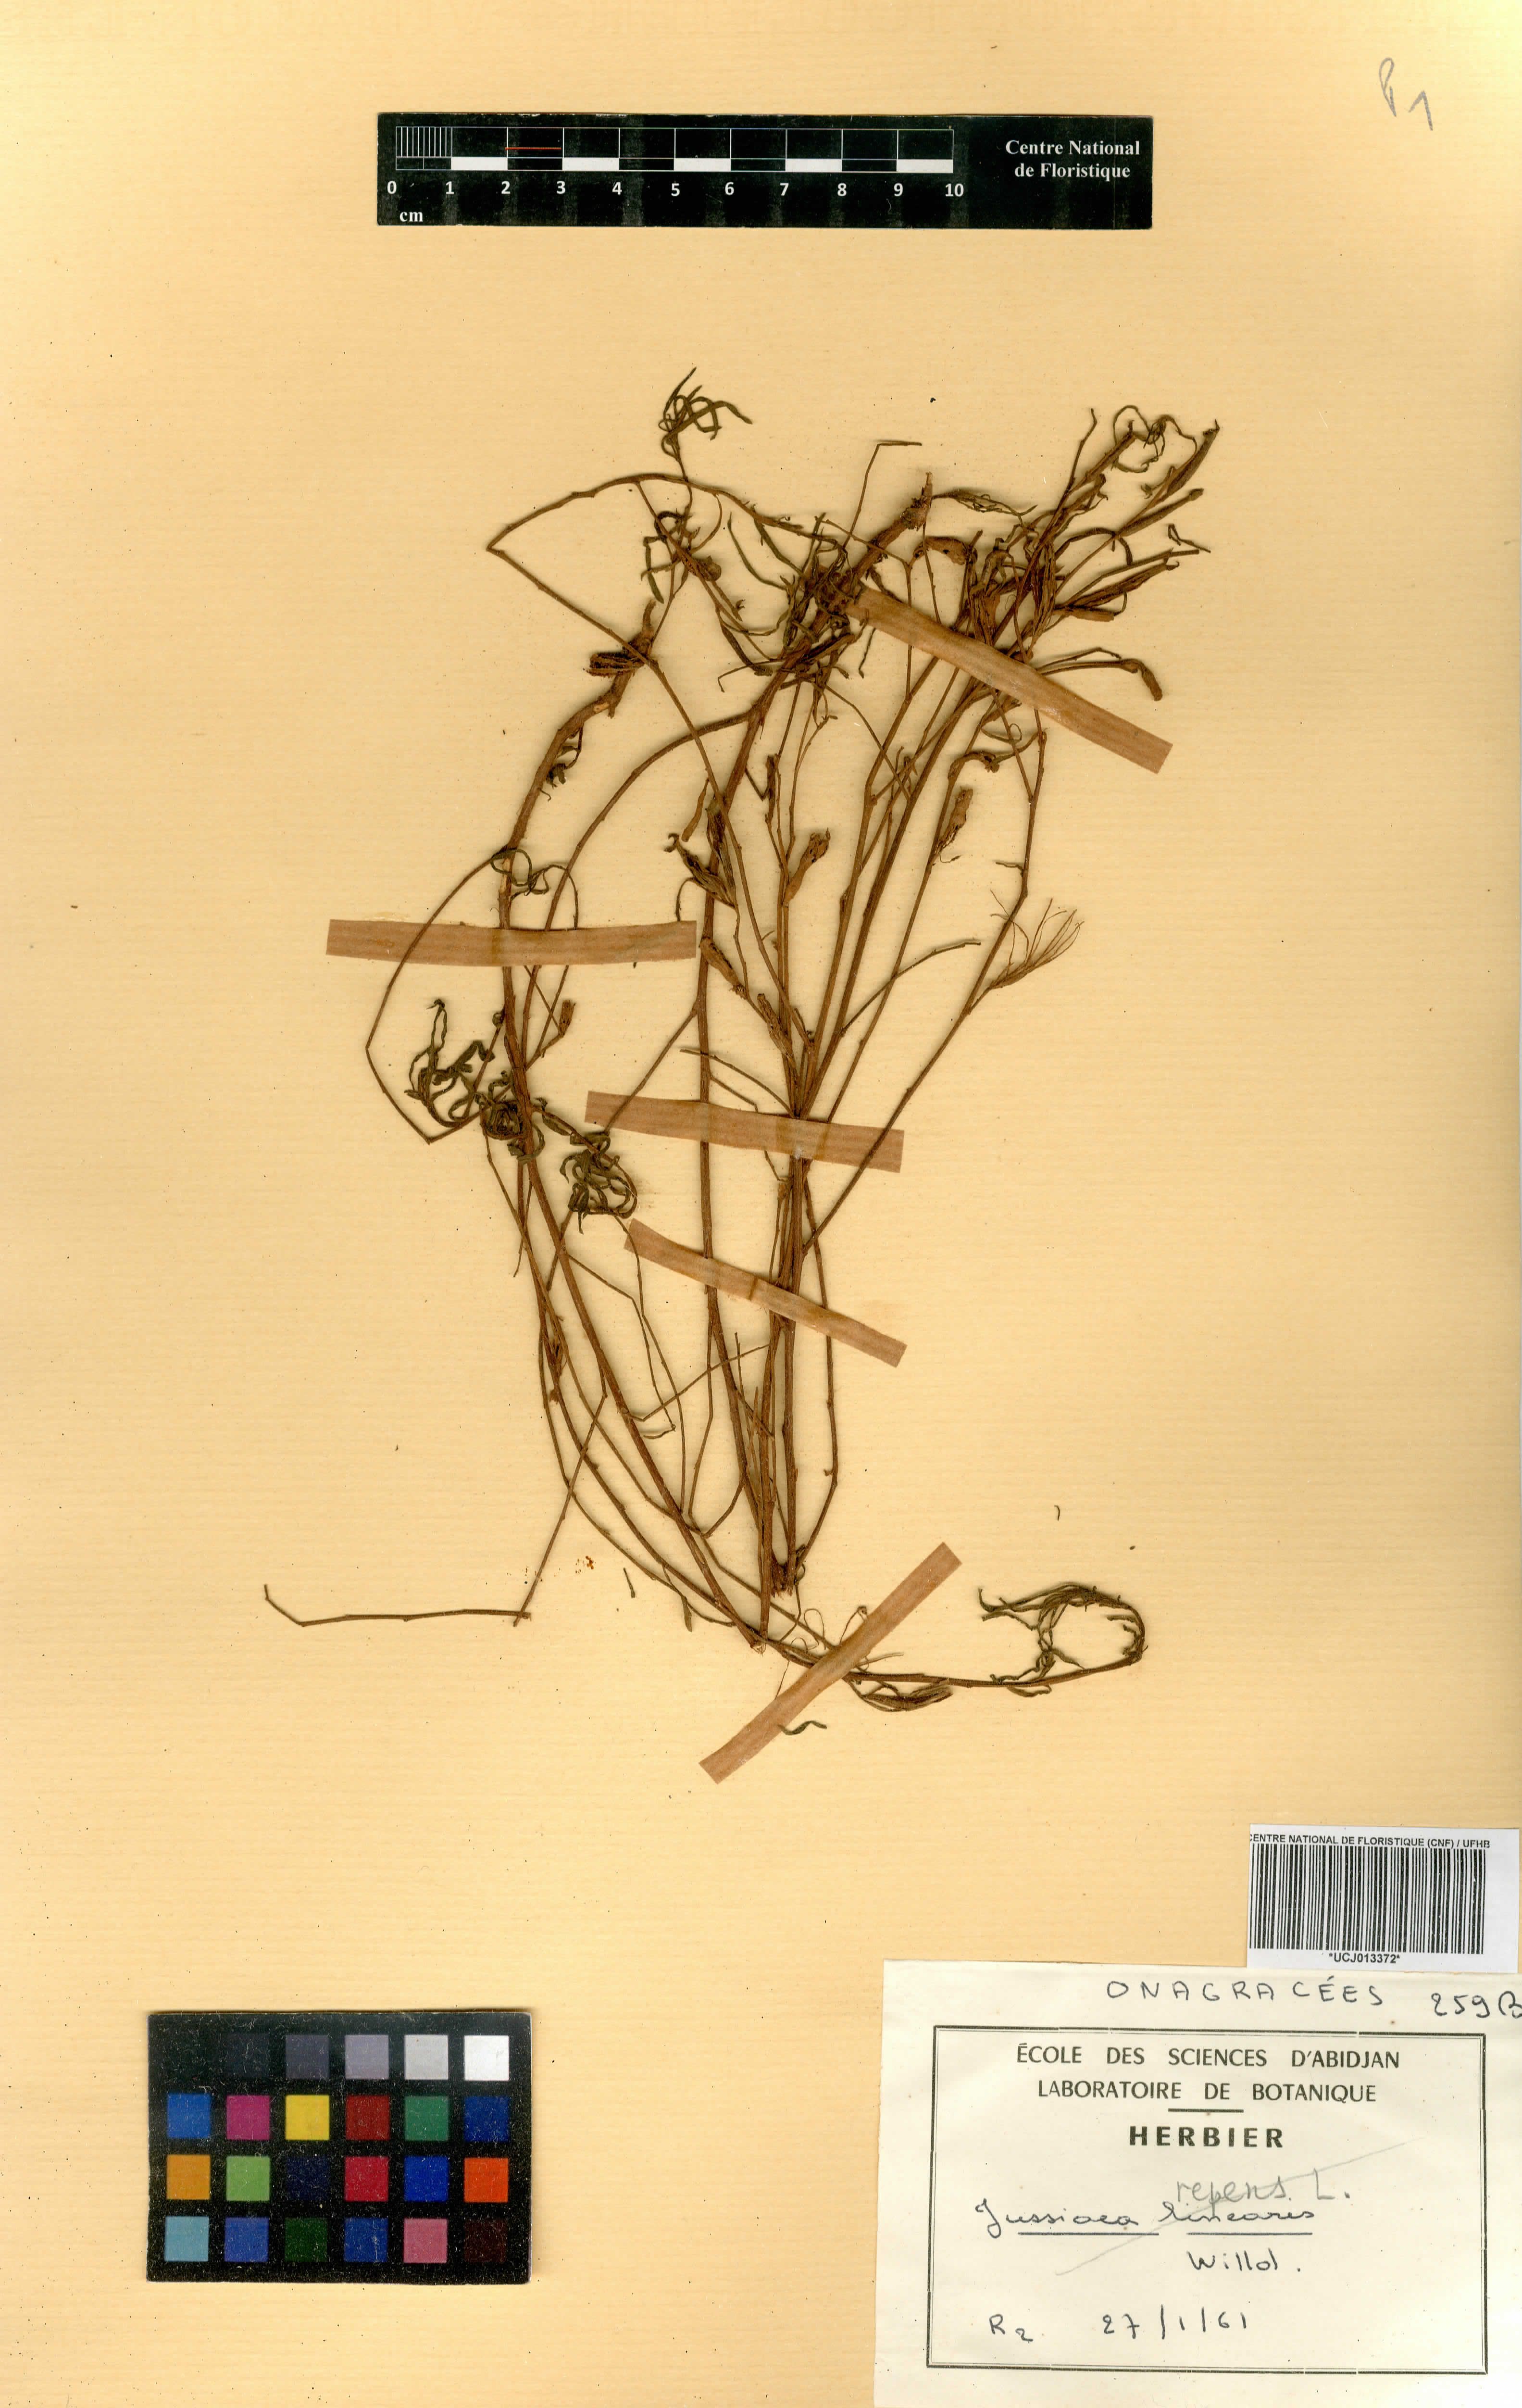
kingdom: Plantae
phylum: Tracheophyta
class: Magnoliopsida
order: Myrtales
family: Onagraceae
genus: Ludwigia
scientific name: Ludwigia octovalvis
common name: Water-primrose
